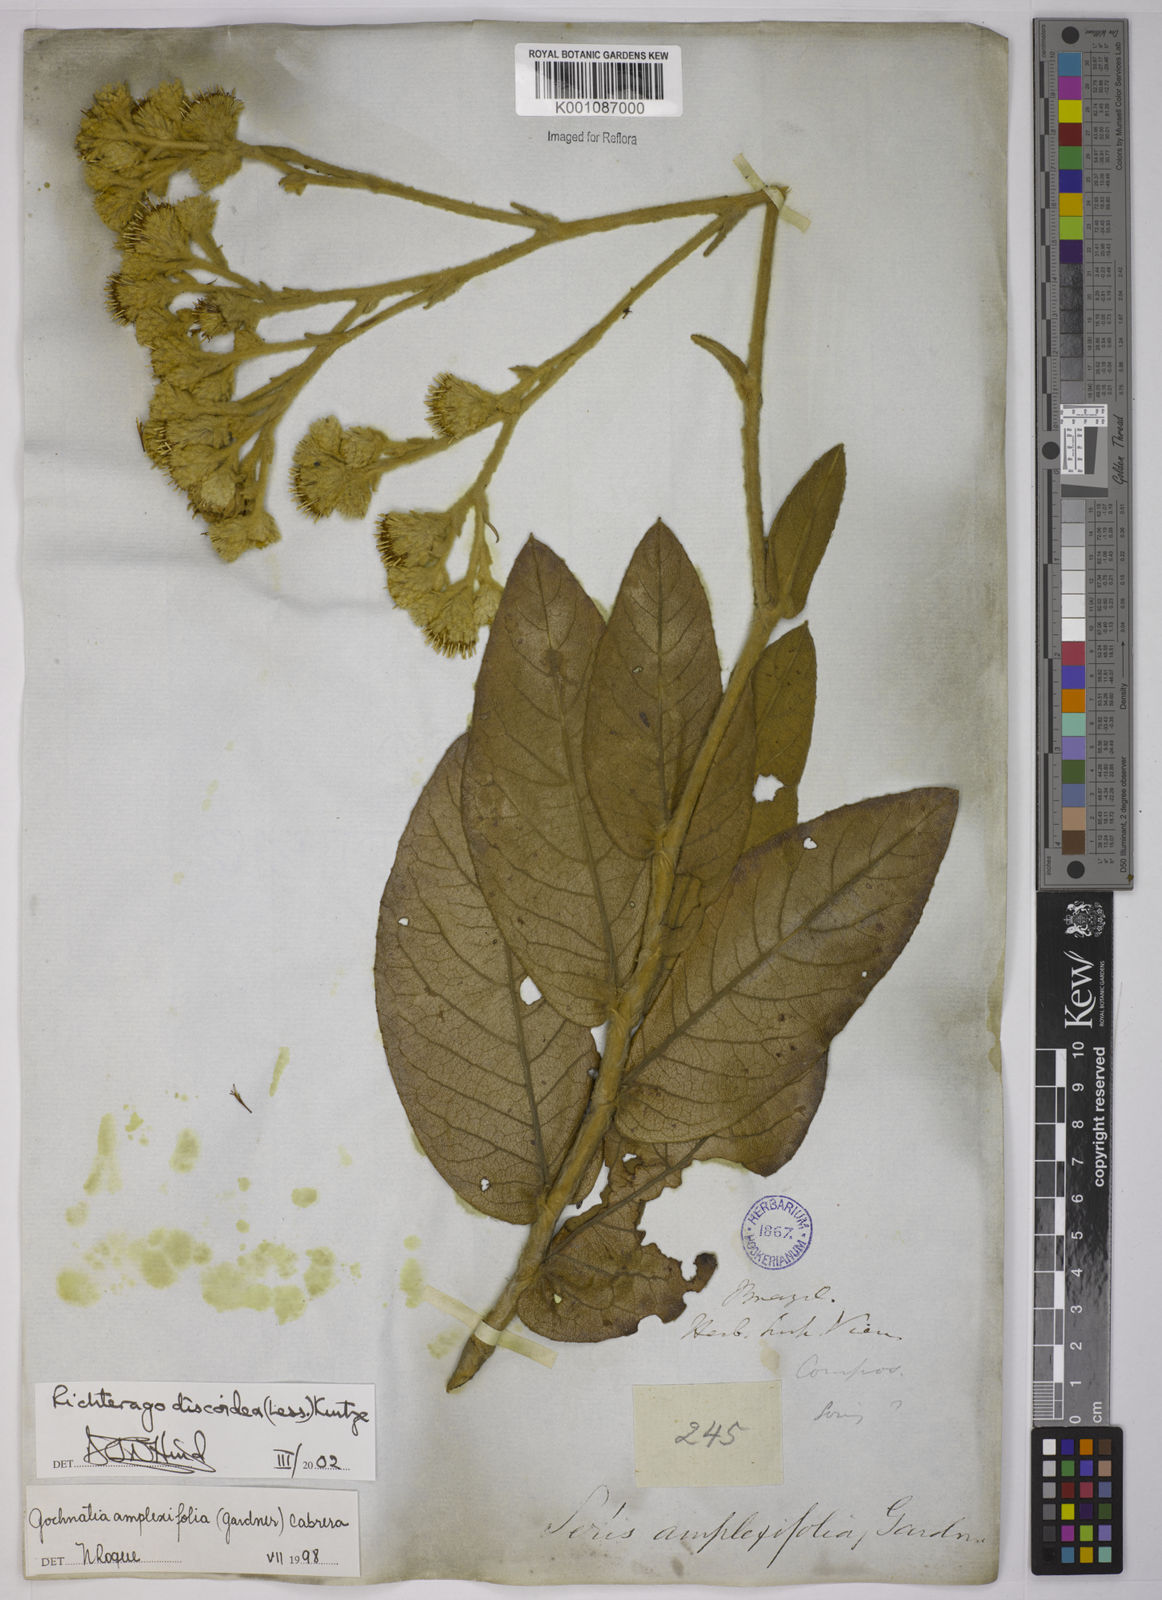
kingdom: Plantae
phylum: Tracheophyta
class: Magnoliopsida
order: Asterales
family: Asteraceae
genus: Richterago
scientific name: Richterago amplexifolia
